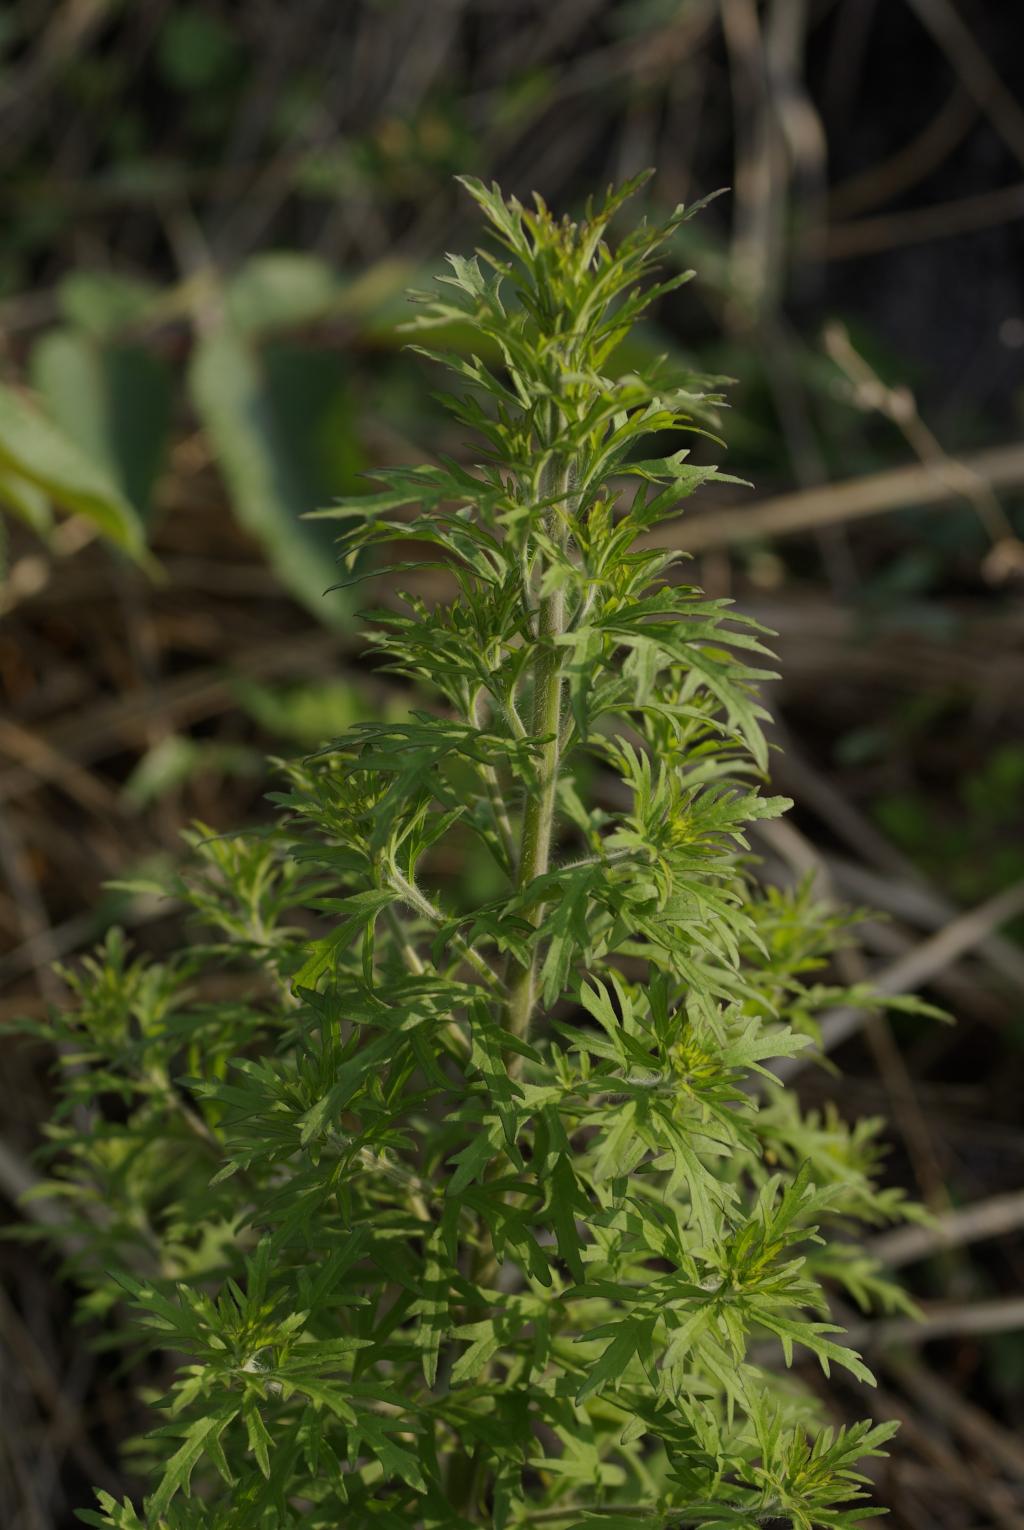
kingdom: Plantae
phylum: Tracheophyta
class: Magnoliopsida
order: Lamiales
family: Orobanchaceae
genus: Siphonostegia
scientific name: Siphonostegia chinensis
